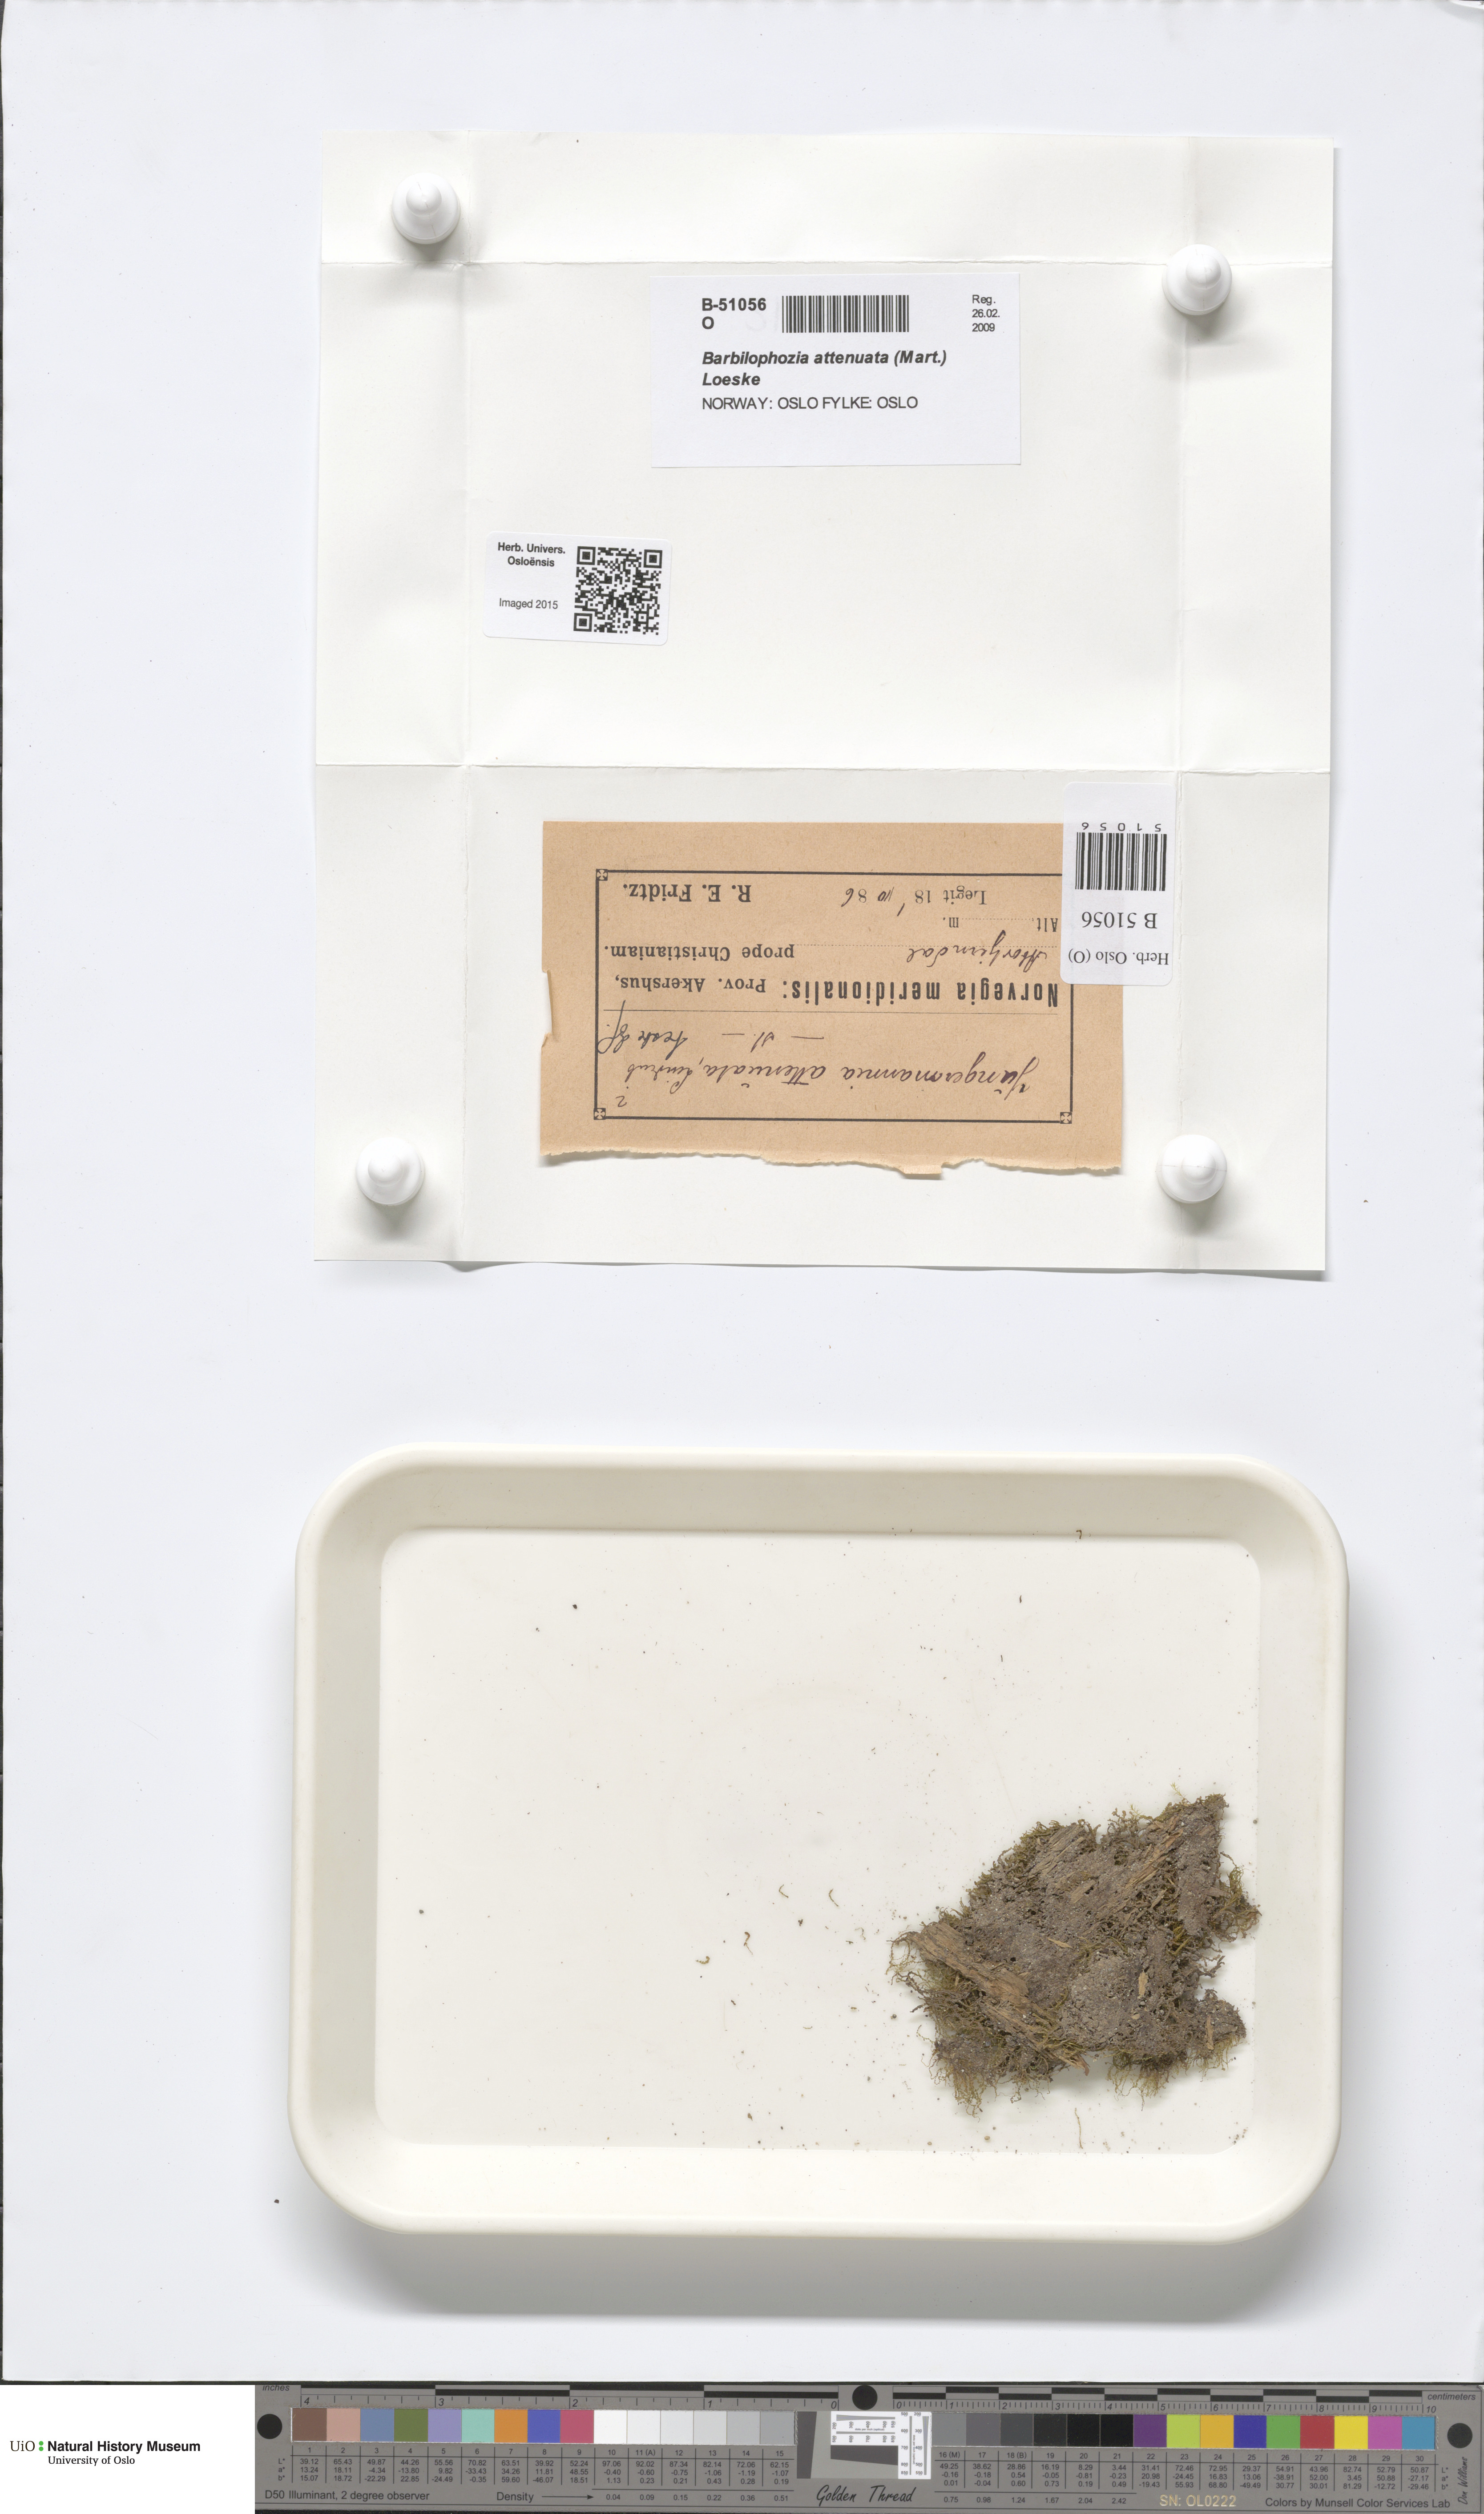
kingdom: Plantae
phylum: Marchantiophyta
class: Jungermanniopsida
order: Jungermanniales
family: Anastrophyllaceae
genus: Neoorthocaulis
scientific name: Neoorthocaulis attenuatus
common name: Trunk pawwort
